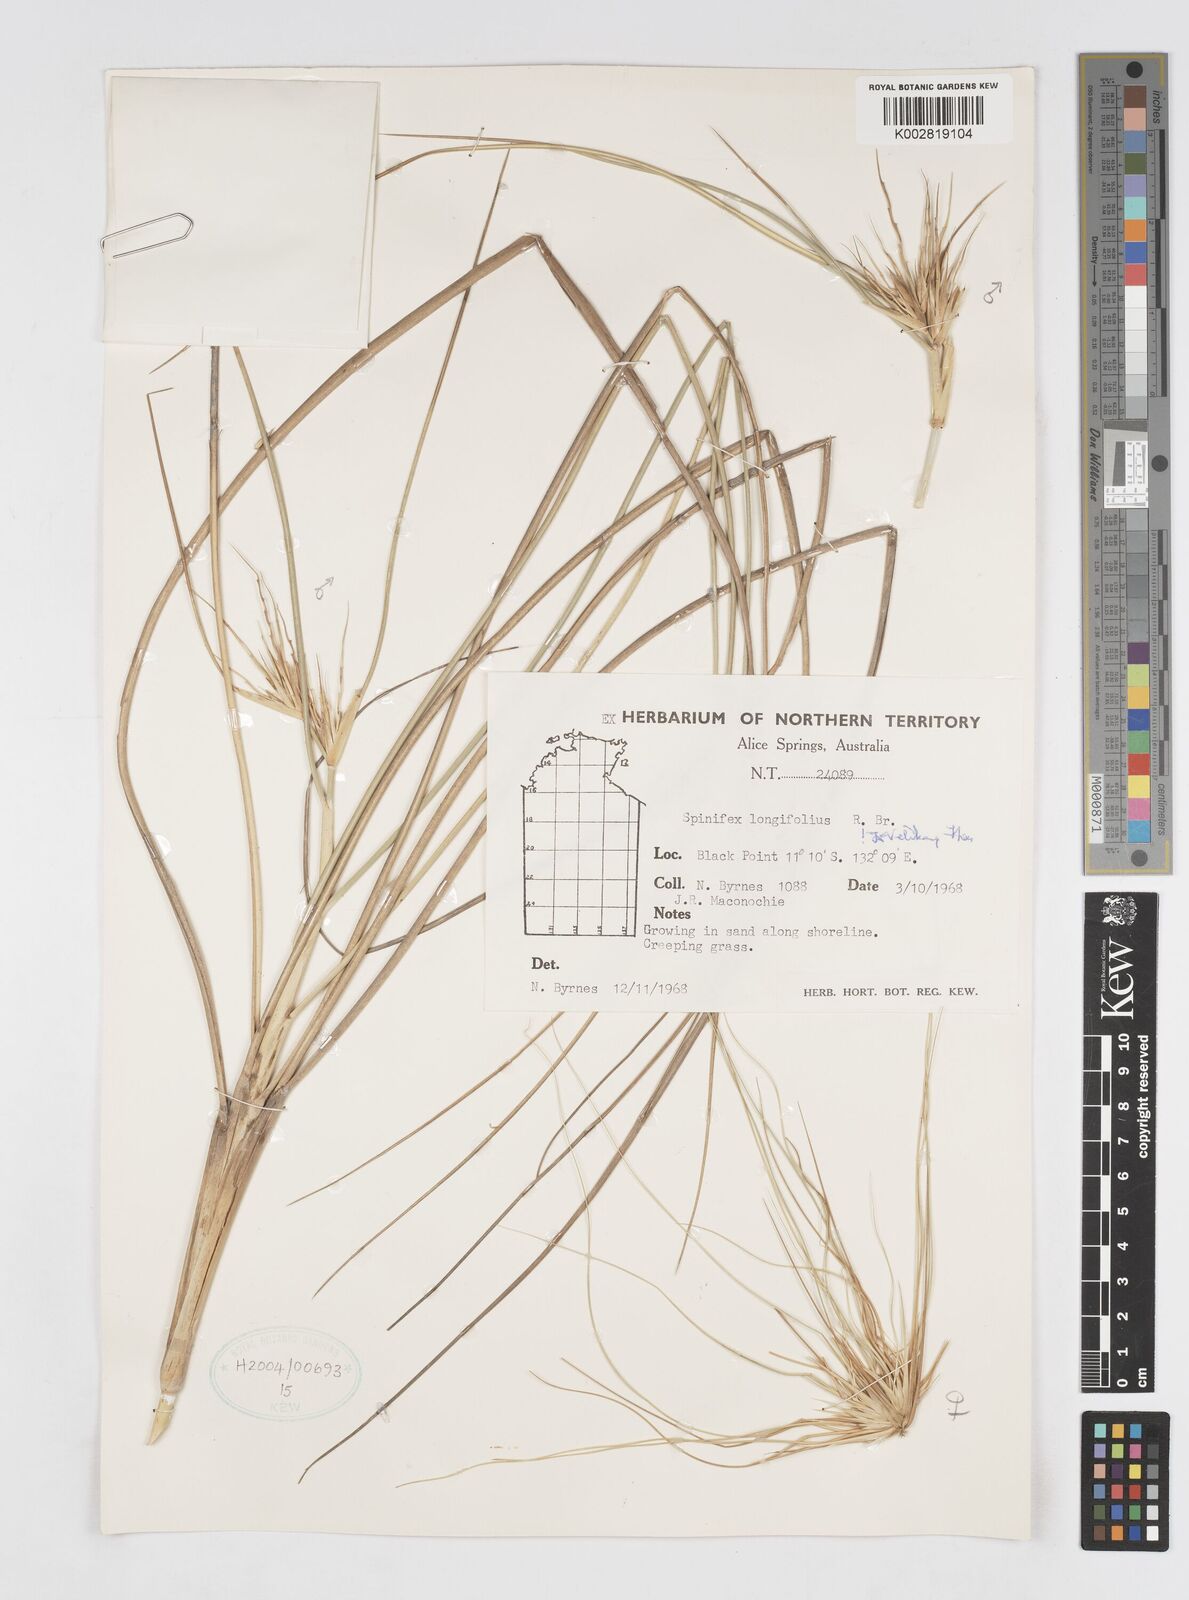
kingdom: Plantae
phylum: Tracheophyta
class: Liliopsida
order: Poales
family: Poaceae
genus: Spinifex
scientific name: Spinifex longifolius
